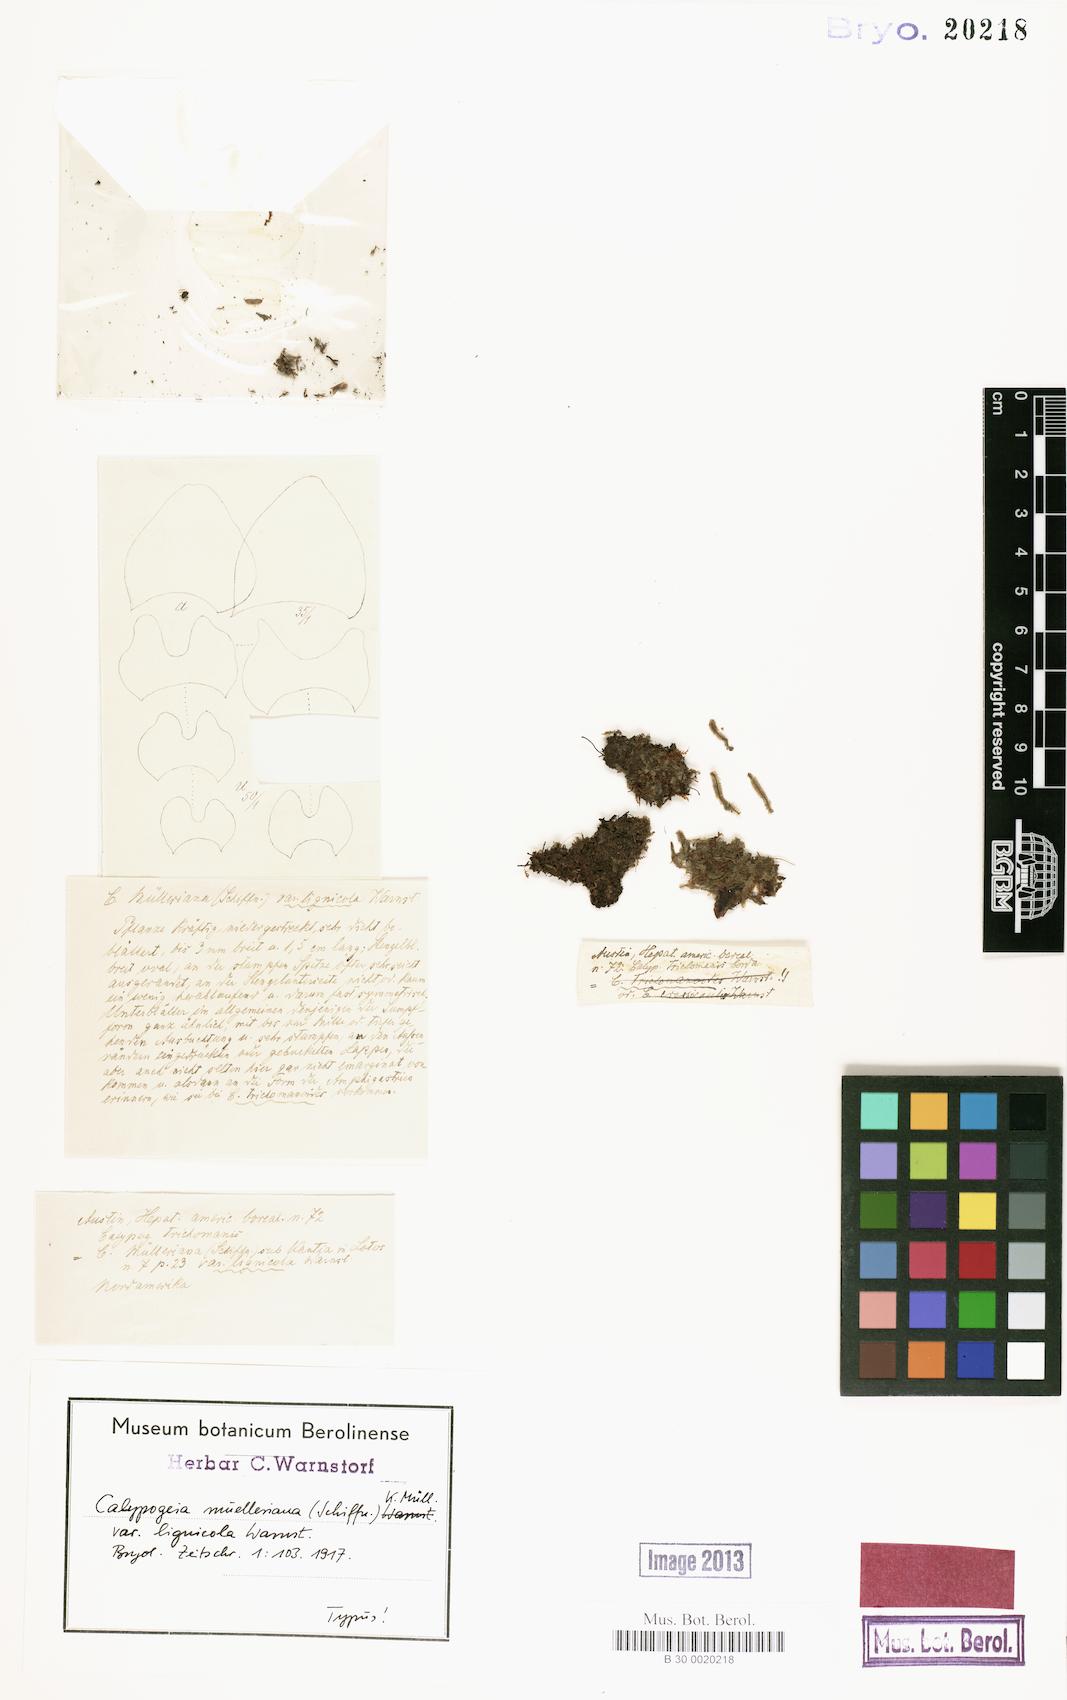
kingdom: Plantae
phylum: Marchantiophyta
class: Jungermanniopsida
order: Jungermanniales
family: Calypogeiaceae
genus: Calypogeia
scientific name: Calypogeia muelleriana
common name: Mueller s pouchwort
